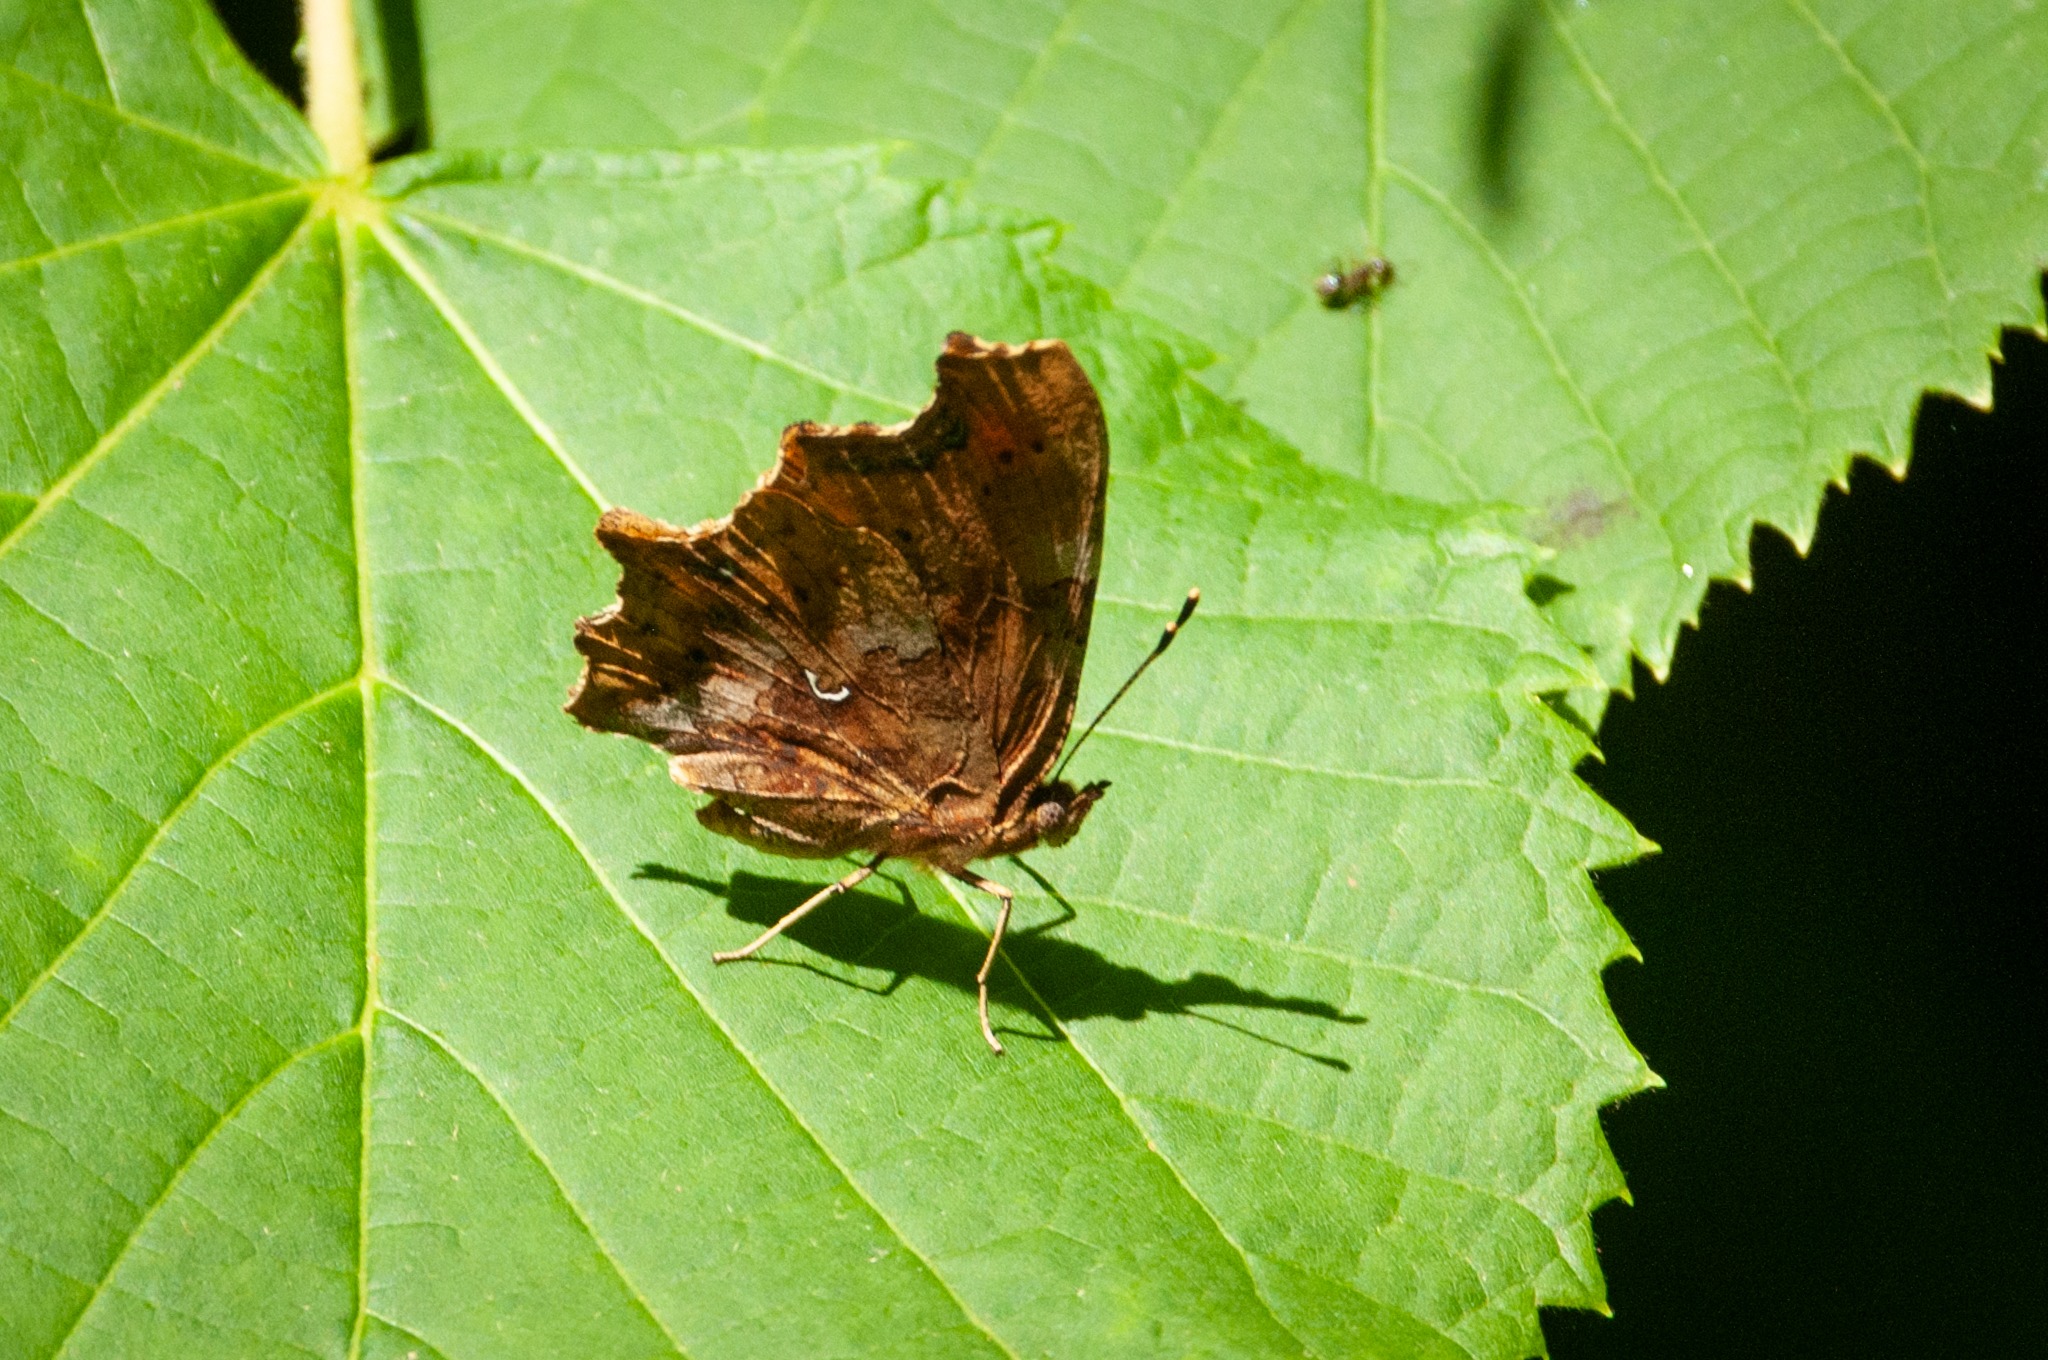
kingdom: Animalia
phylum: Arthropoda
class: Insecta
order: Lepidoptera
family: Nymphalidae
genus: Polygonia
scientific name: Polygonia c-album
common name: Det hvide C
